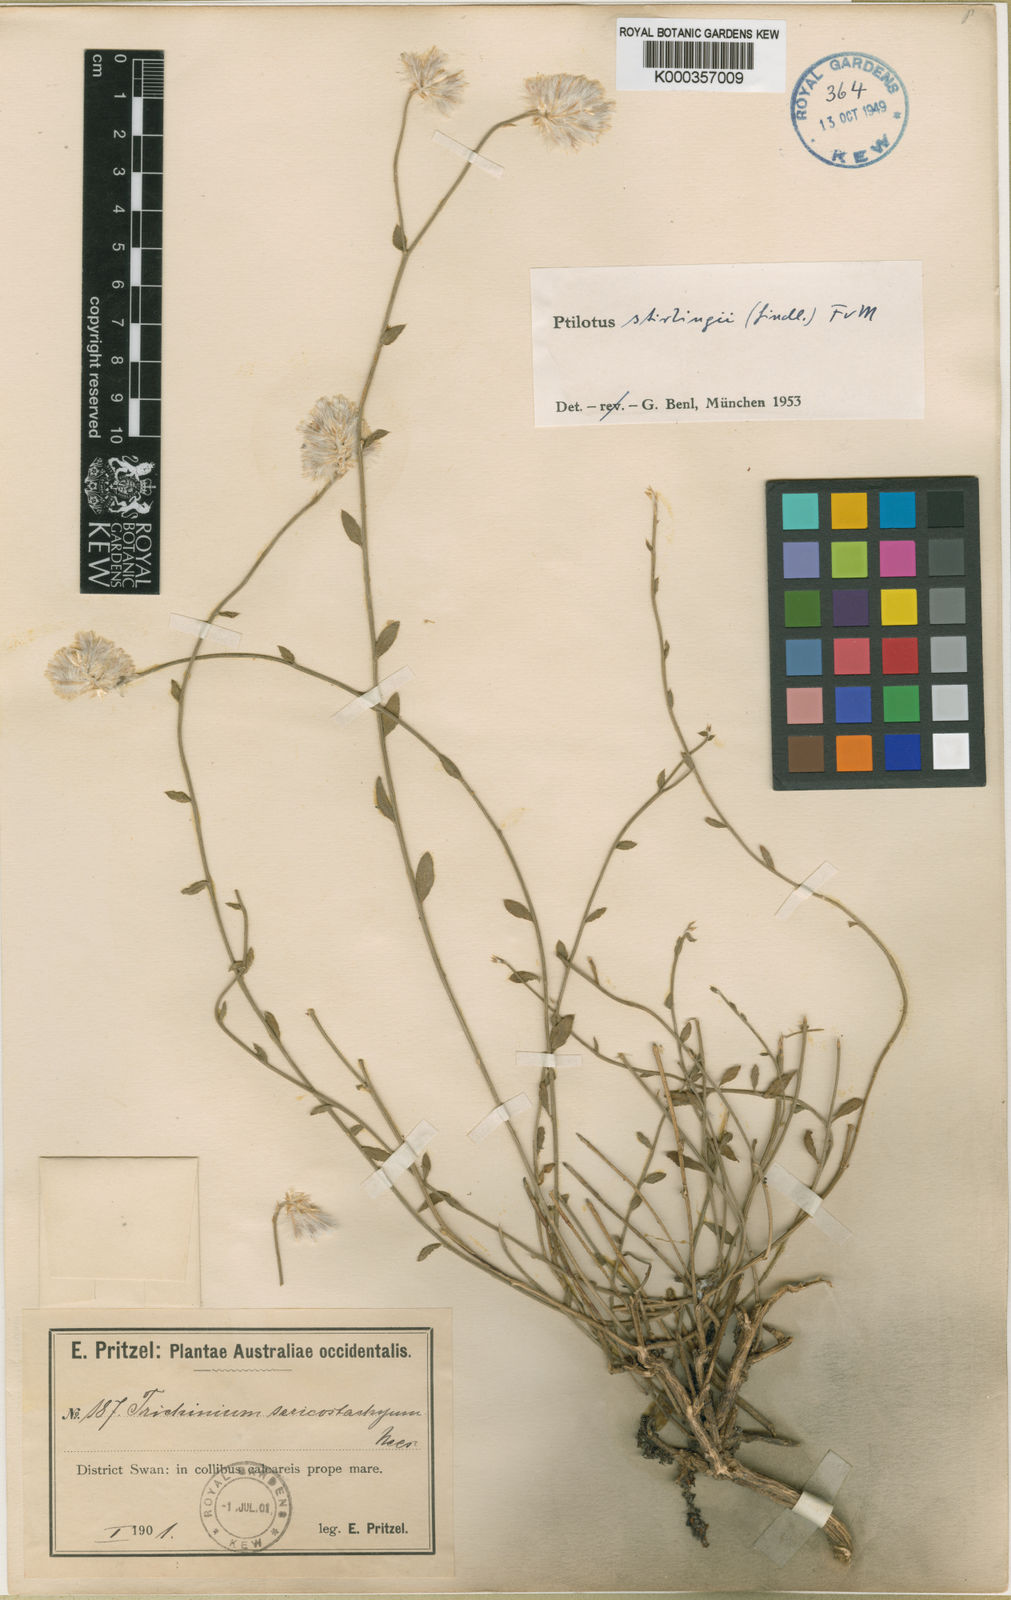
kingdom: Plantae
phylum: Tracheophyta
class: Magnoliopsida
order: Caryophyllales
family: Amaranthaceae
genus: Ptilotus
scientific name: Ptilotus stirlingii
